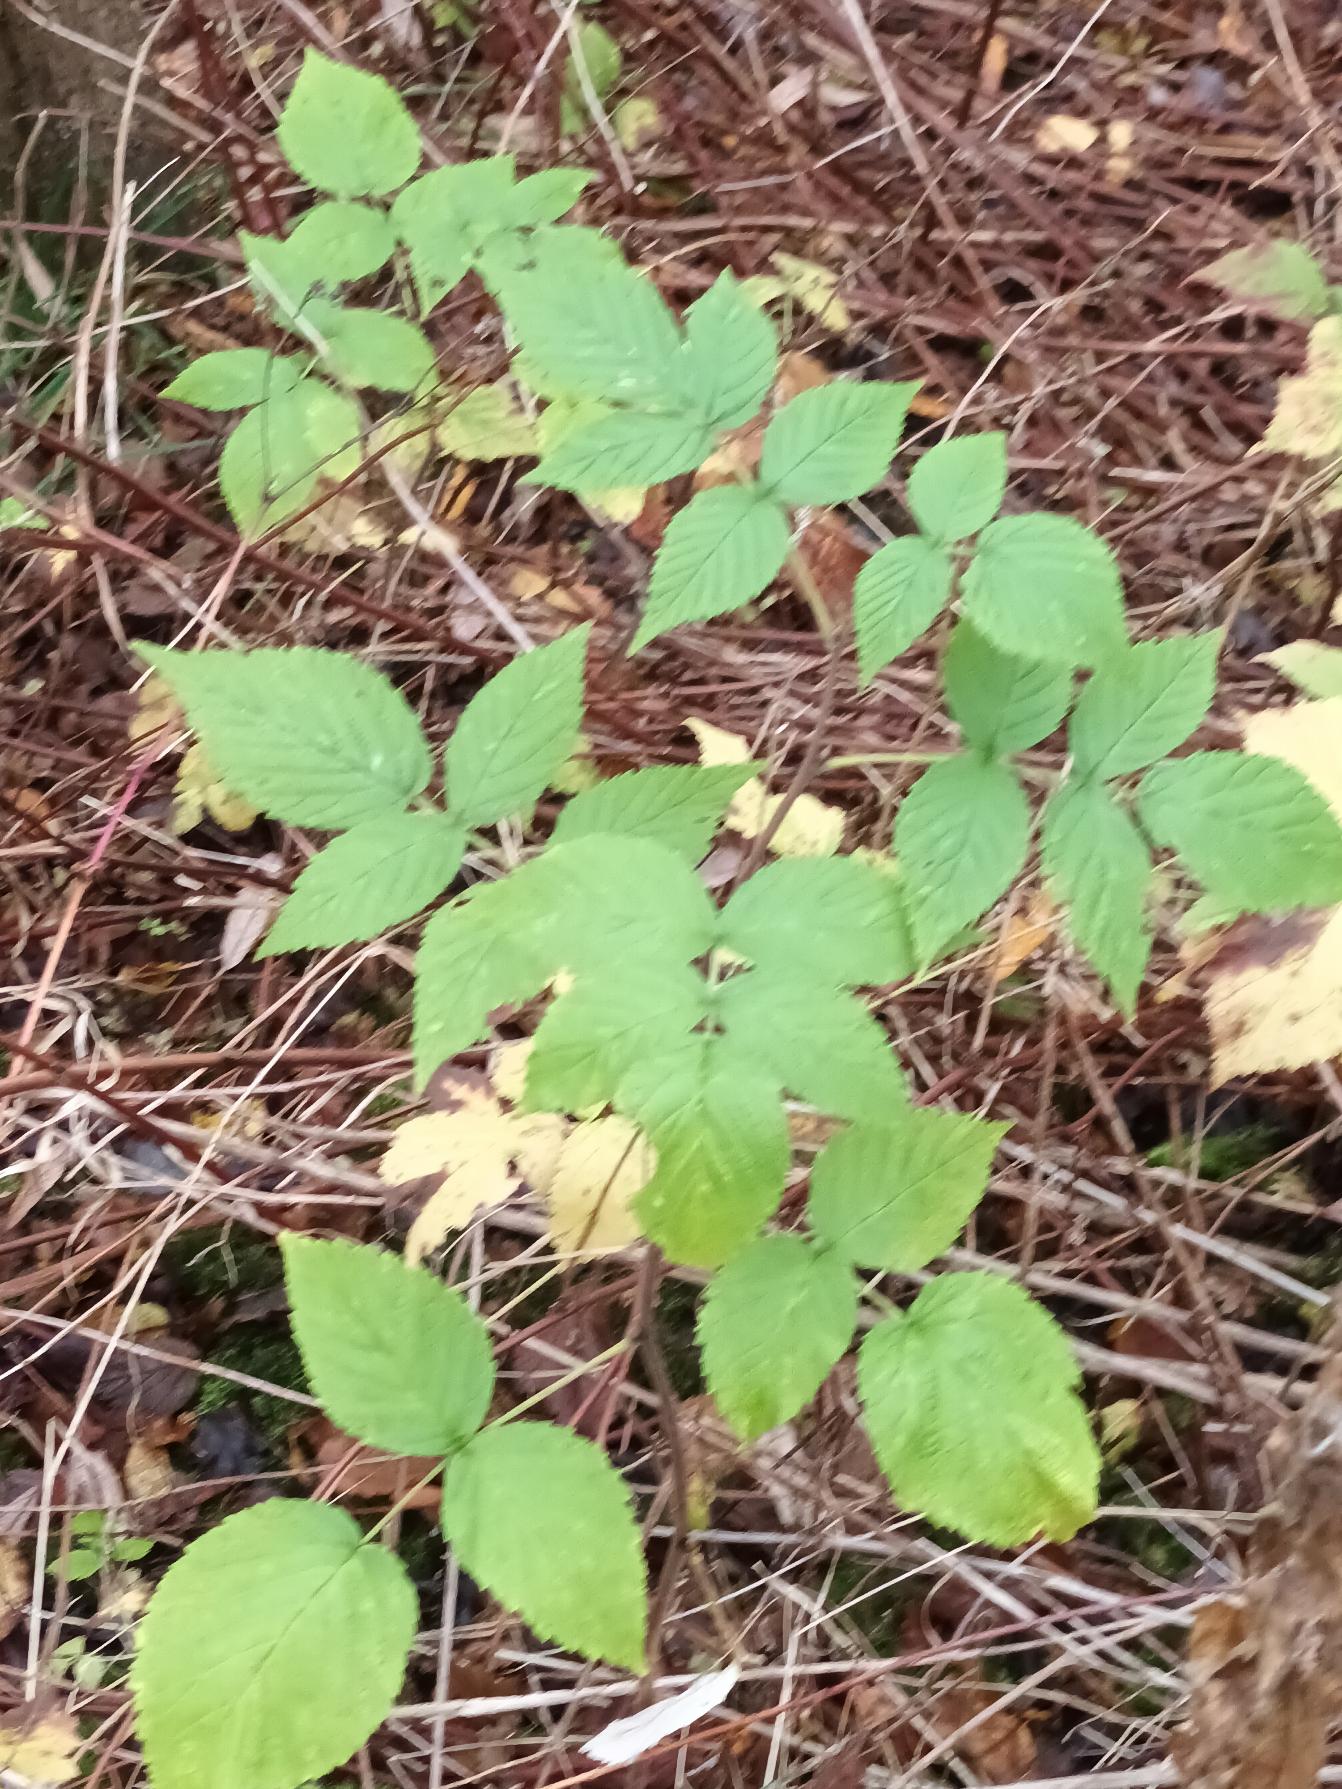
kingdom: Plantae
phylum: Tracheophyta
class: Magnoliopsida
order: Rosales
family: Rosaceae
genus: Rubus
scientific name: Rubus idaeus
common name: Hindbær
